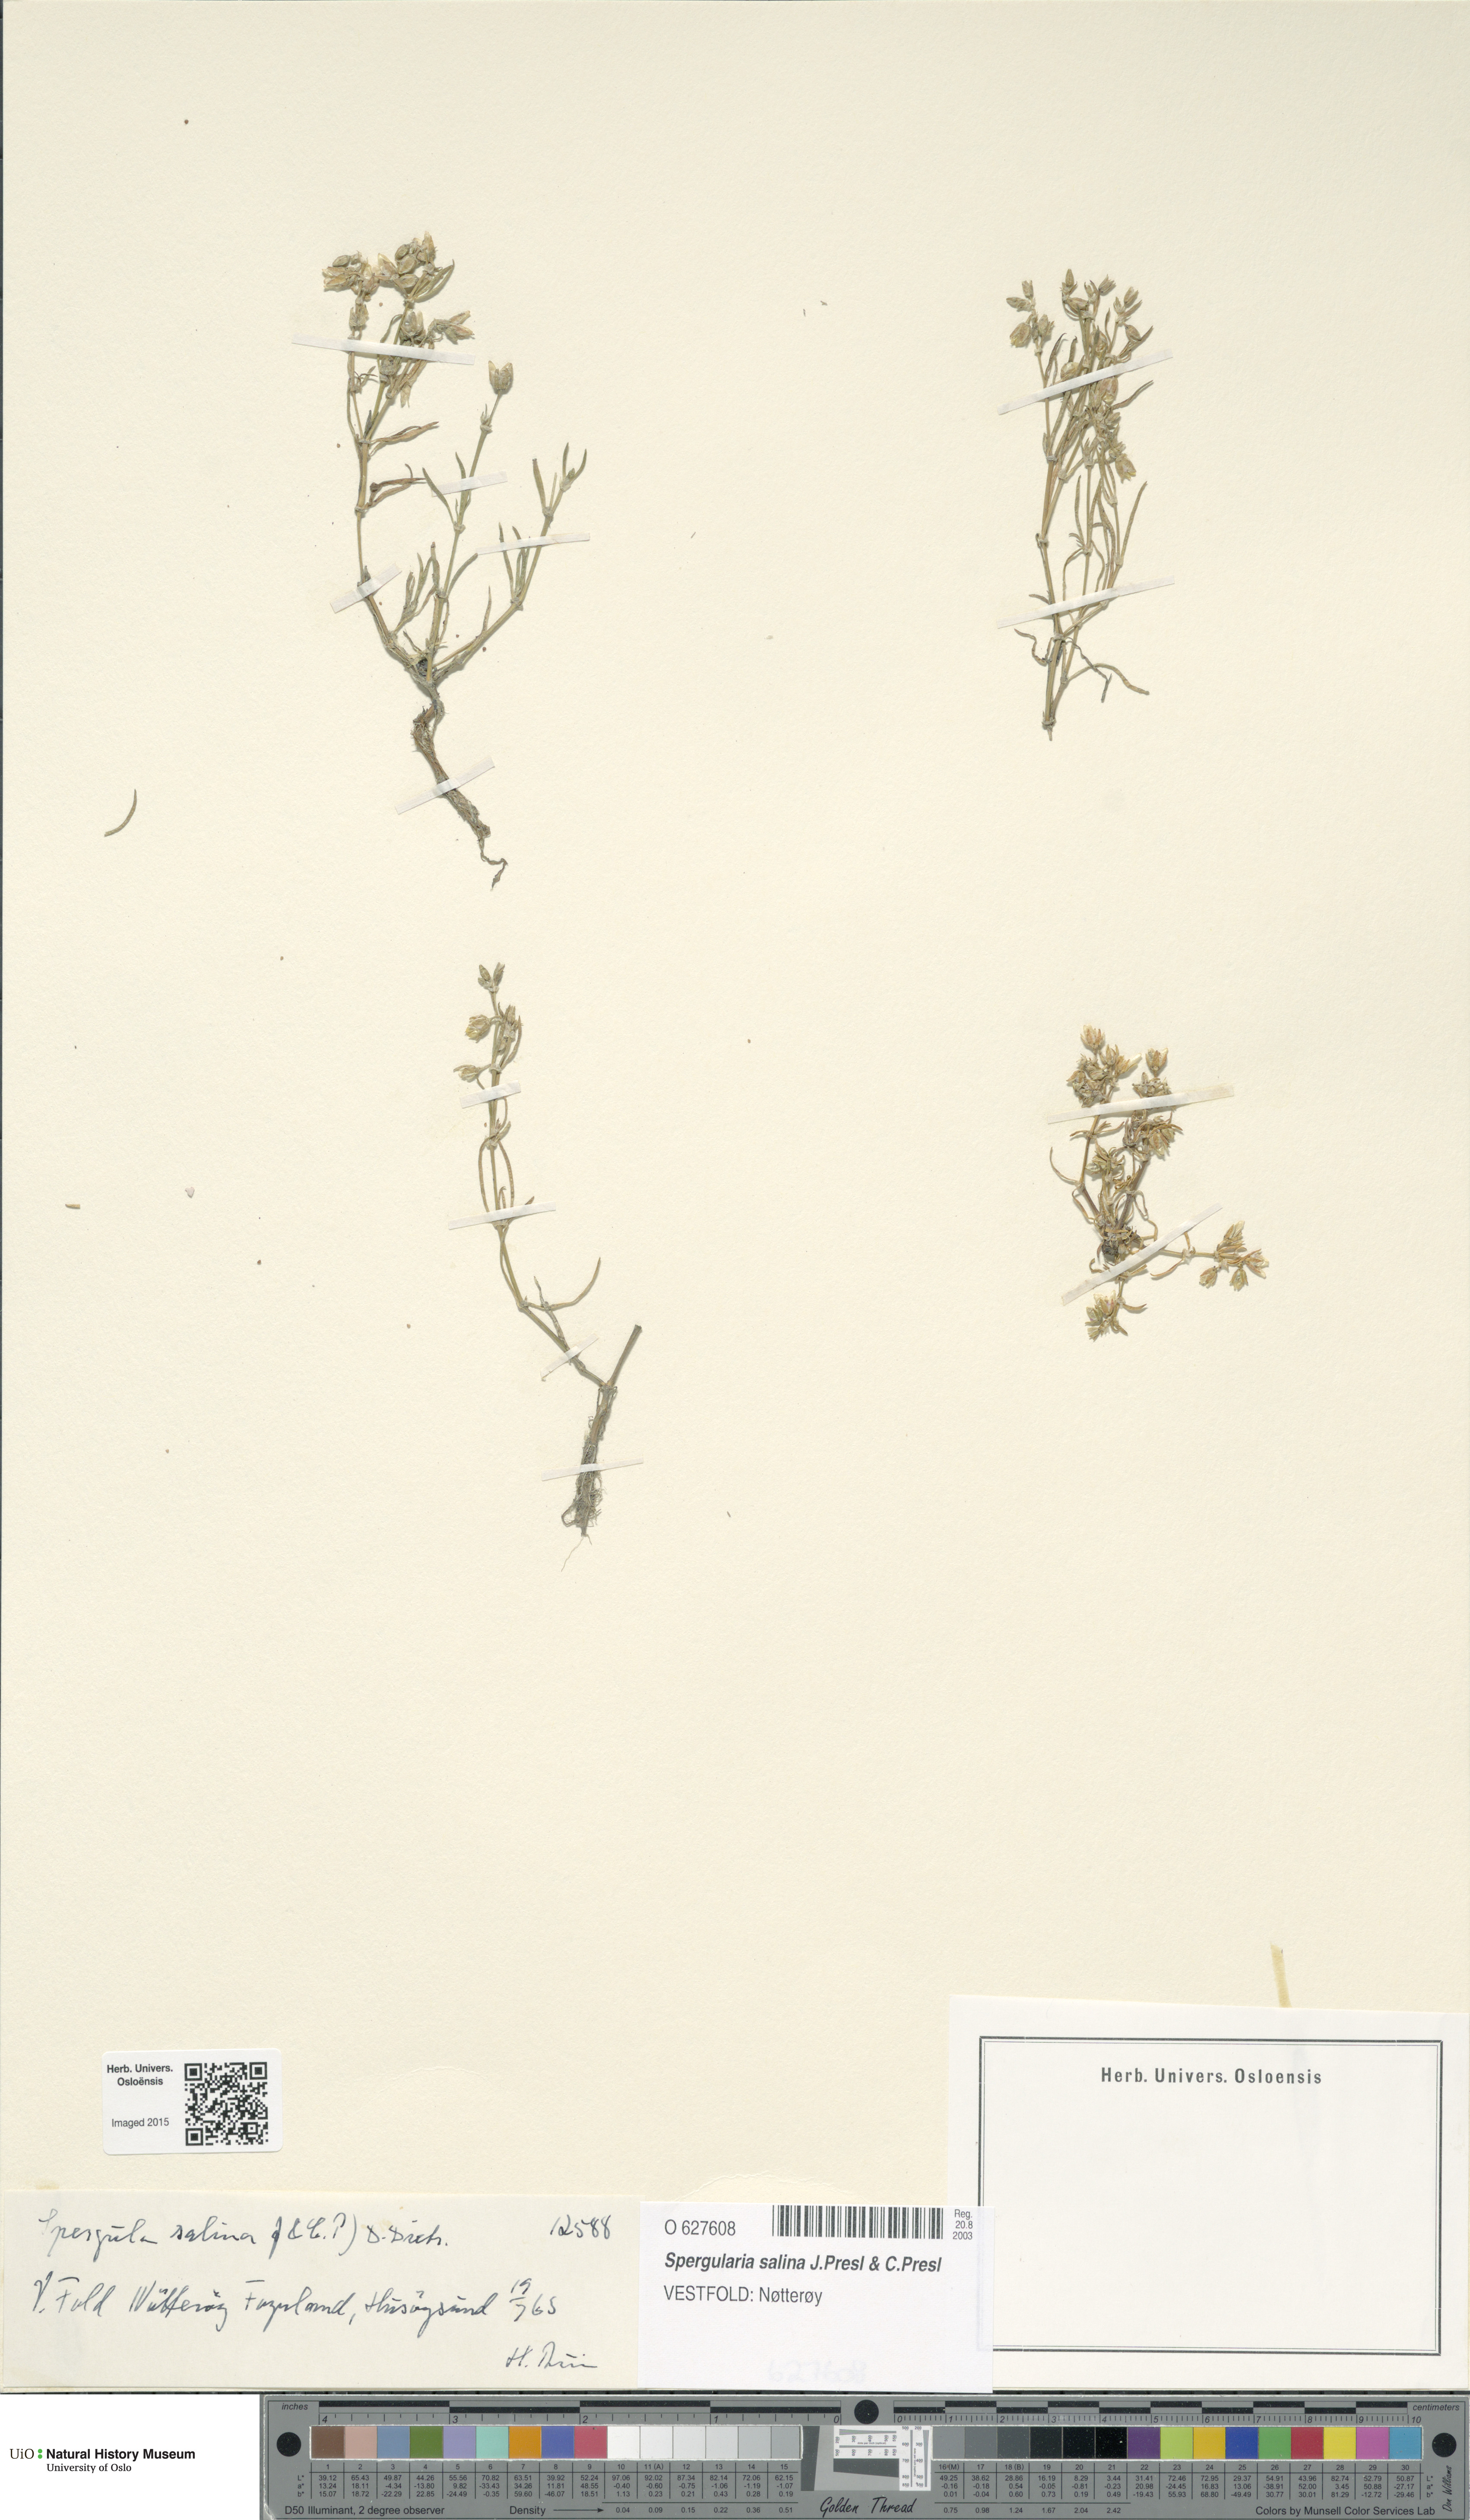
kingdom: Plantae
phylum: Tracheophyta
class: Magnoliopsida
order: Caryophyllales
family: Caryophyllaceae
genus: Spergularia
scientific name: Spergularia marina
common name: Lesser sea-spurrey
